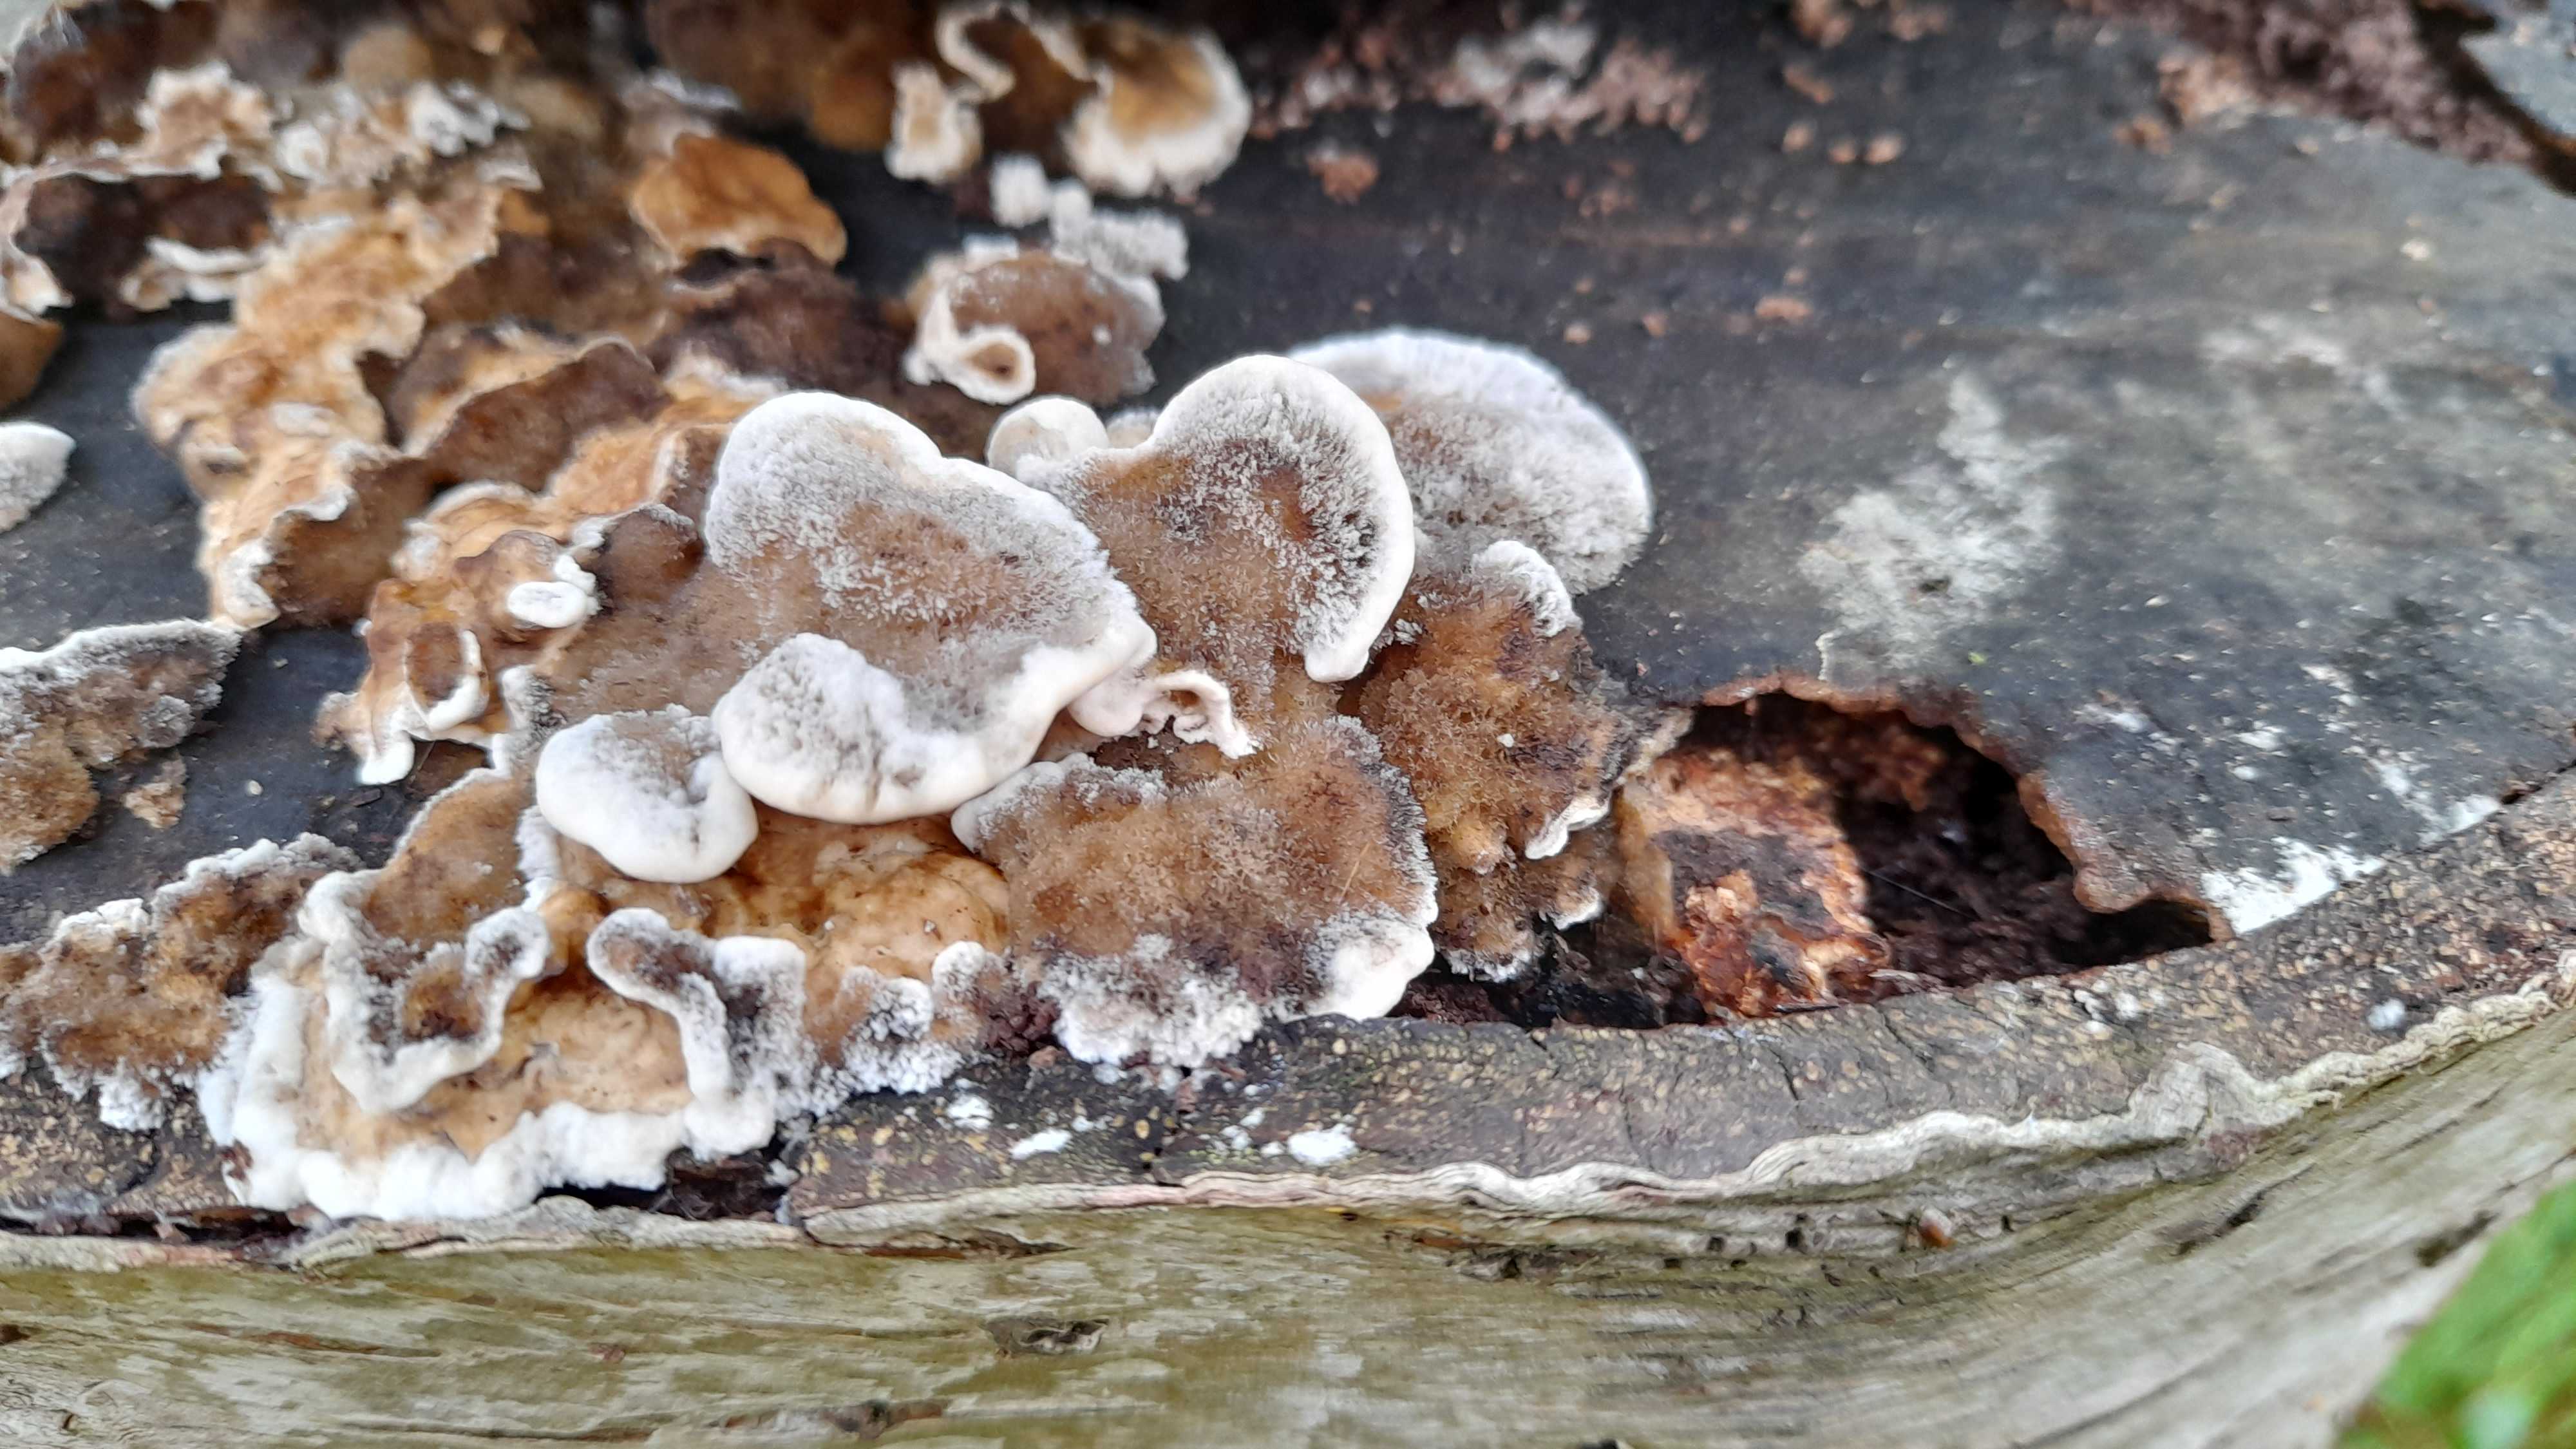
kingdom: Fungi
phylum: Basidiomycota
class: Agaricomycetes
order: Polyporales
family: Phanerochaetaceae
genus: Bjerkandera
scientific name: Bjerkandera adusta
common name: sveden sodporesvamp
